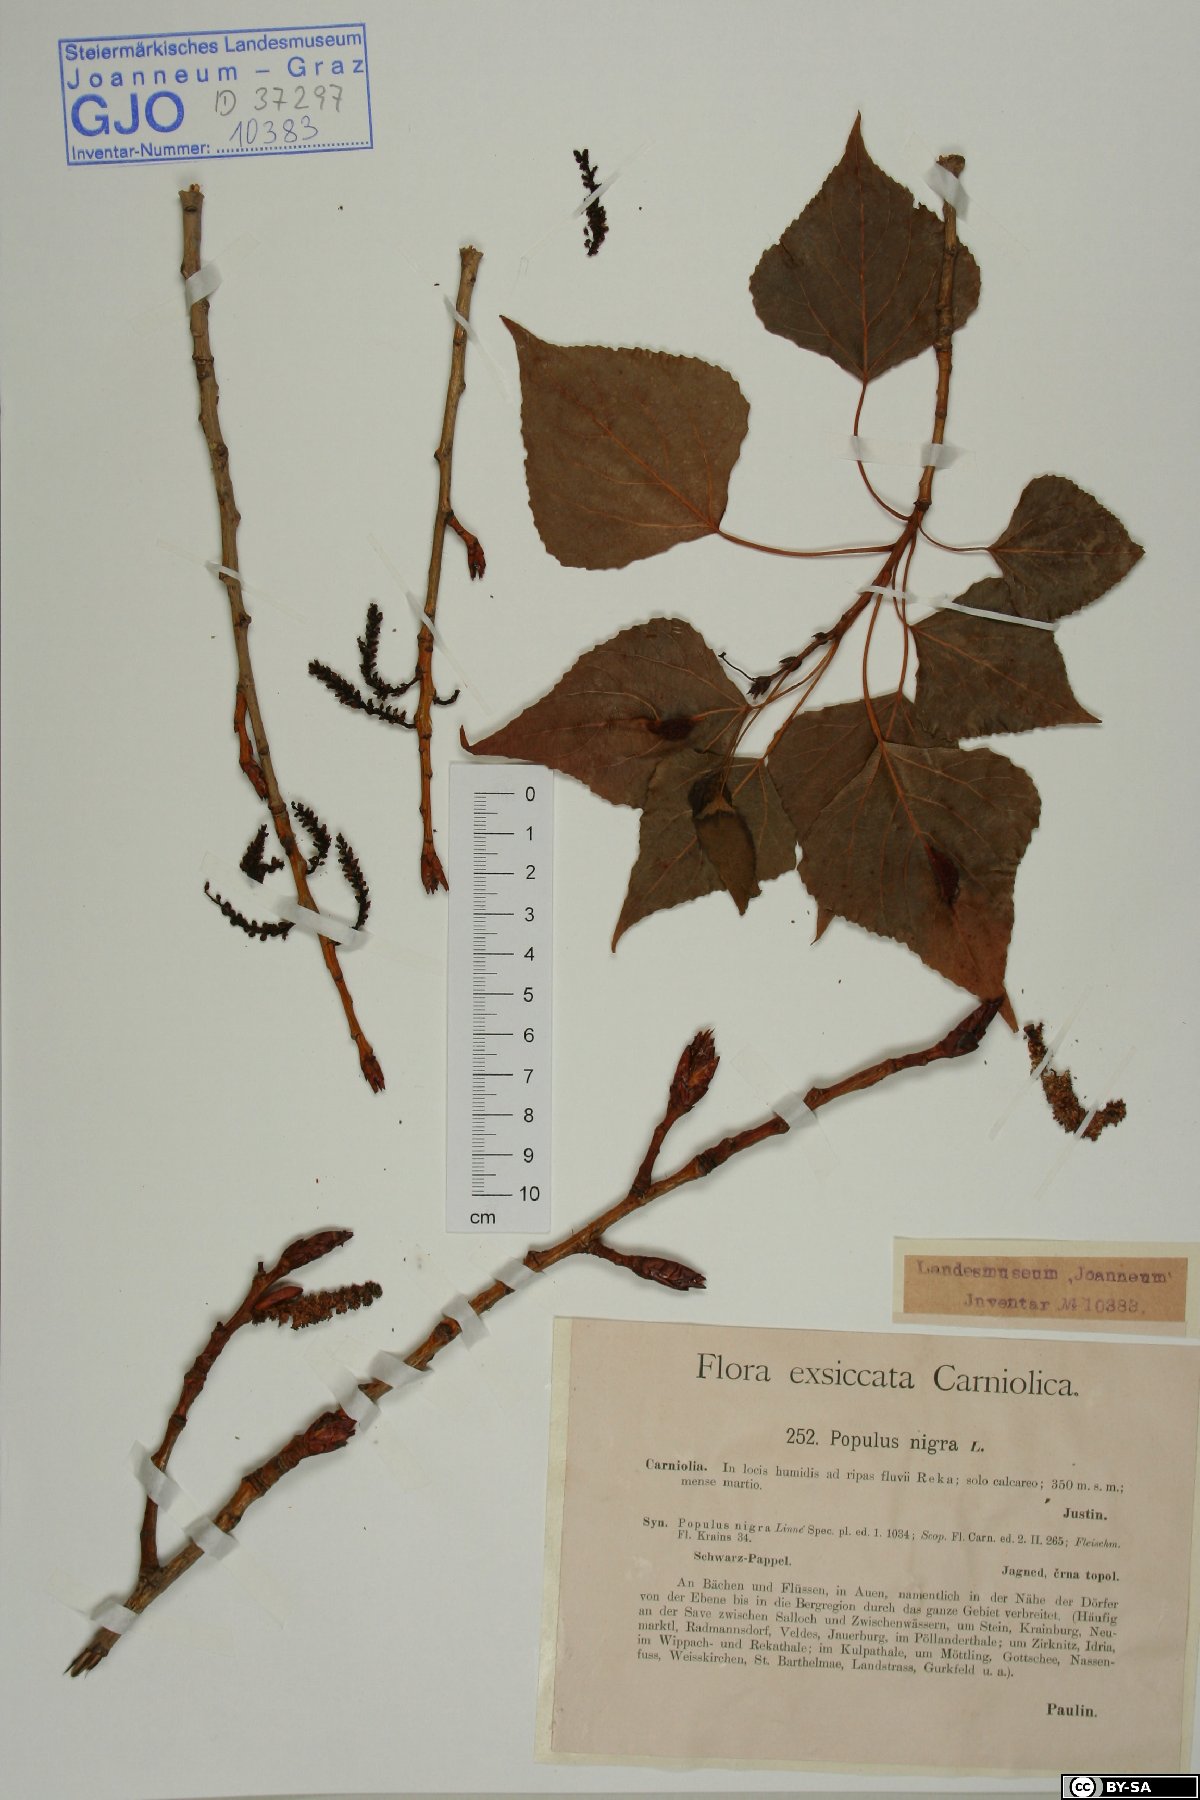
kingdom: Plantae
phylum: Tracheophyta
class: Magnoliopsida
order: Malpighiales
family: Salicaceae
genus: Populus
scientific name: Populus nigra
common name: Black poplar
